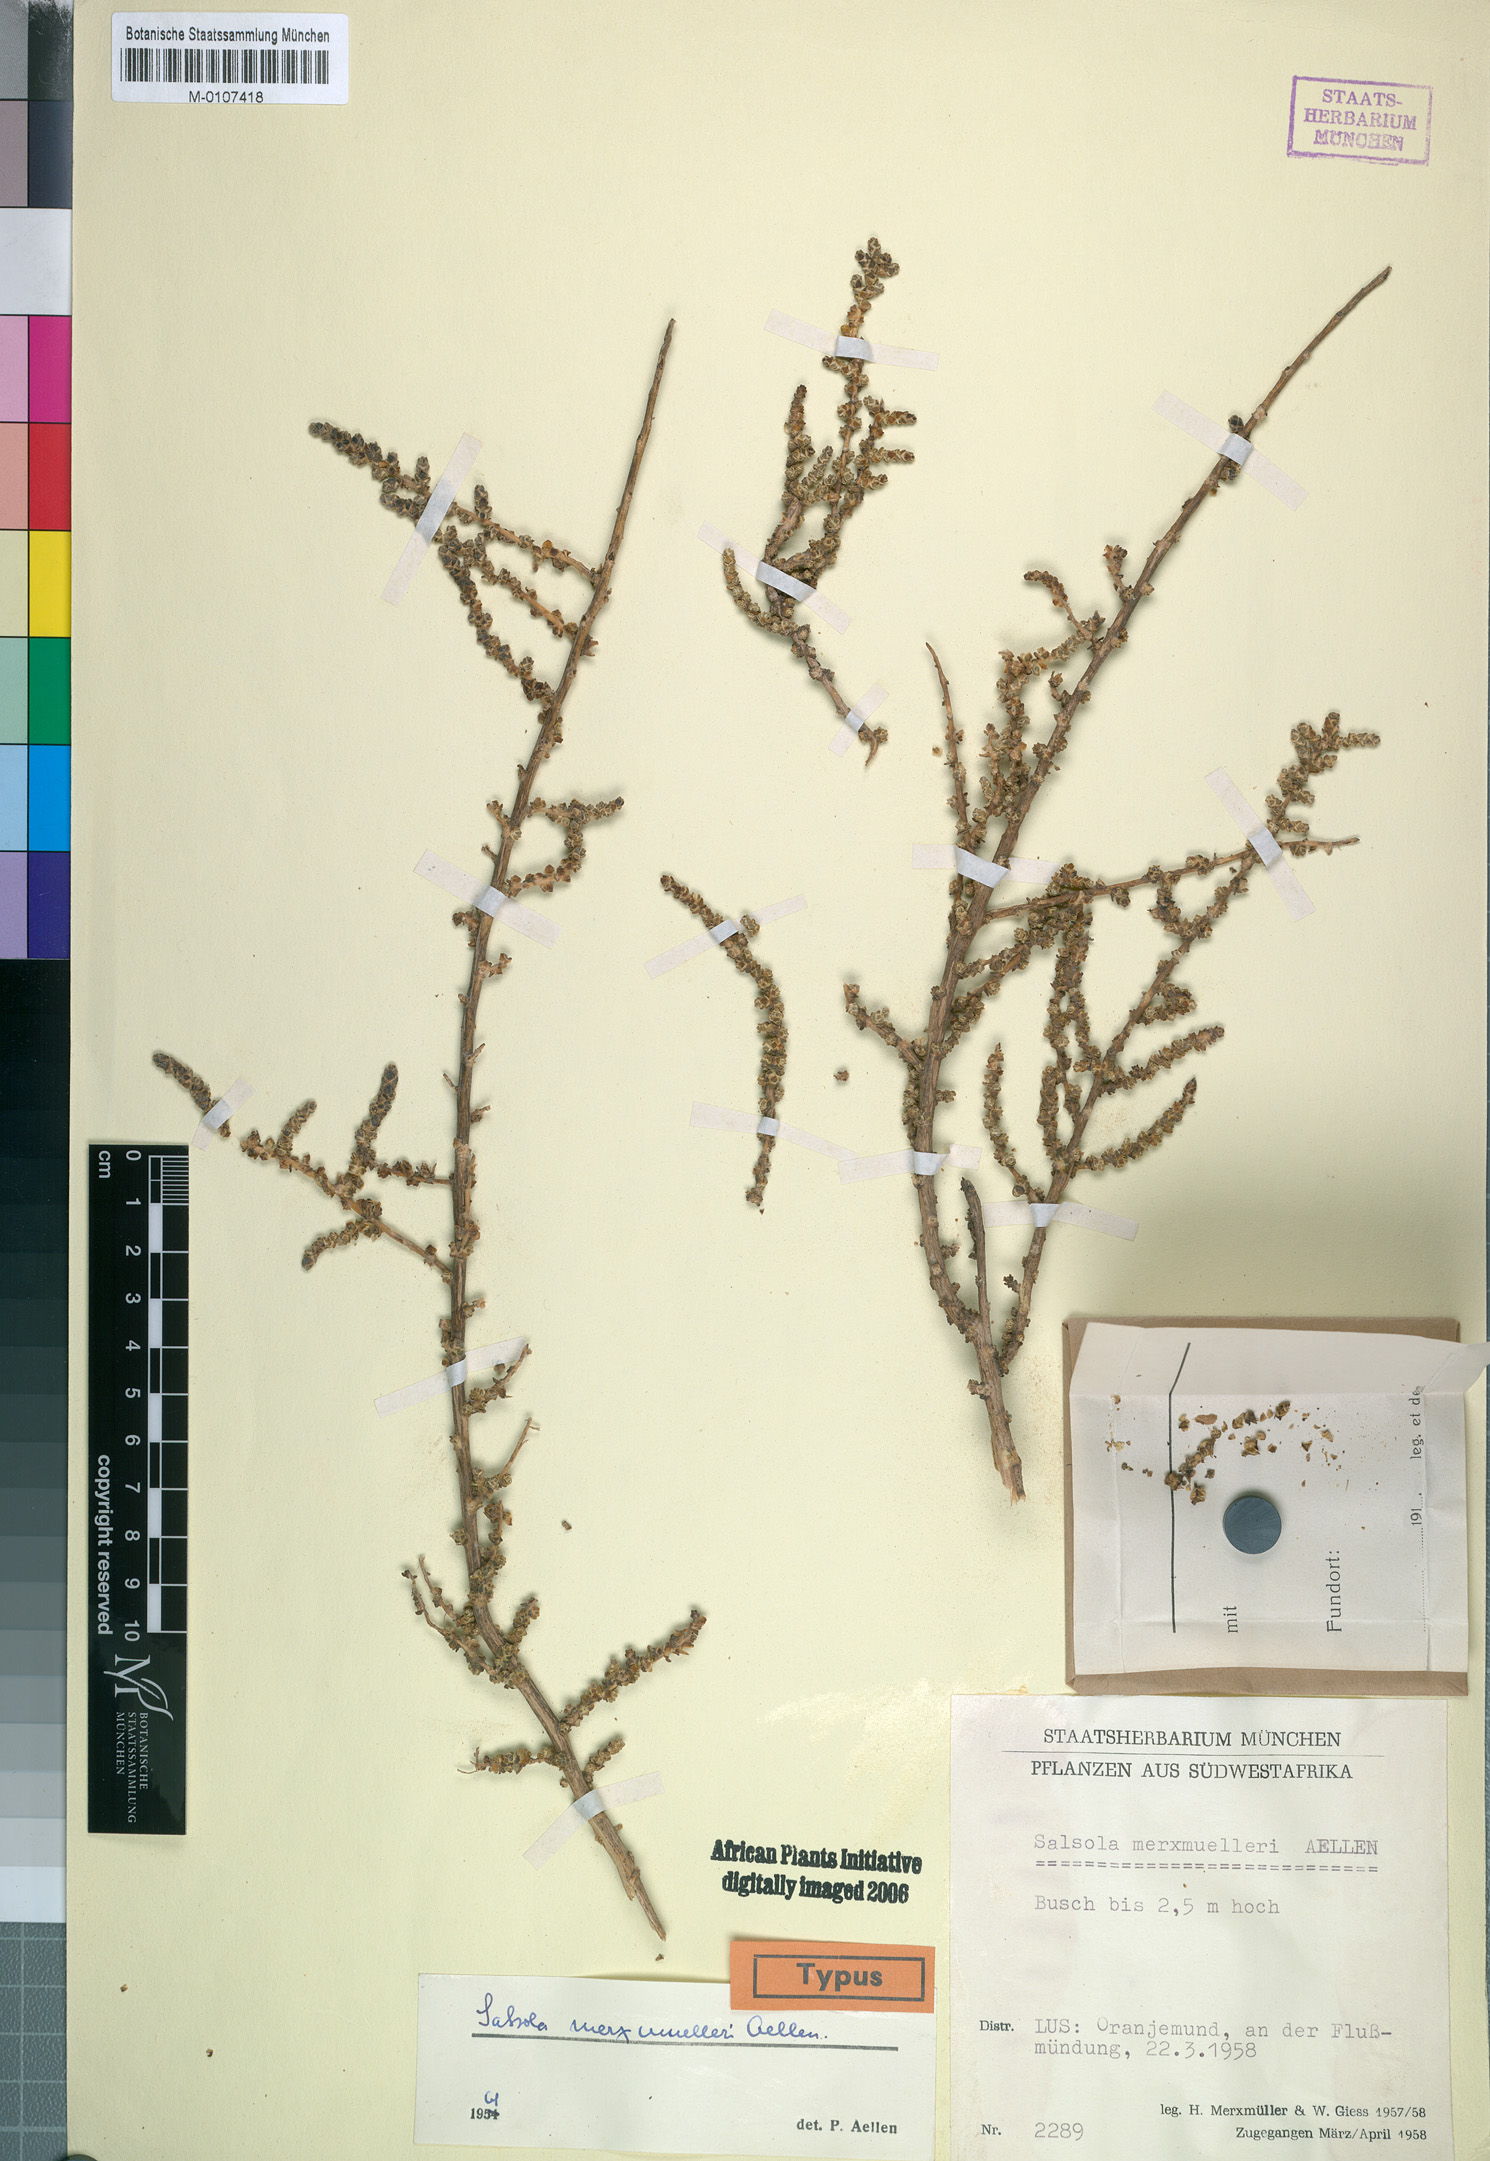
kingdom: Plantae
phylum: Tracheophyta
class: Magnoliopsida
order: Caryophyllales
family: Amaranthaceae
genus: Caroxylon
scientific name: Caroxylon merxmuelleri
